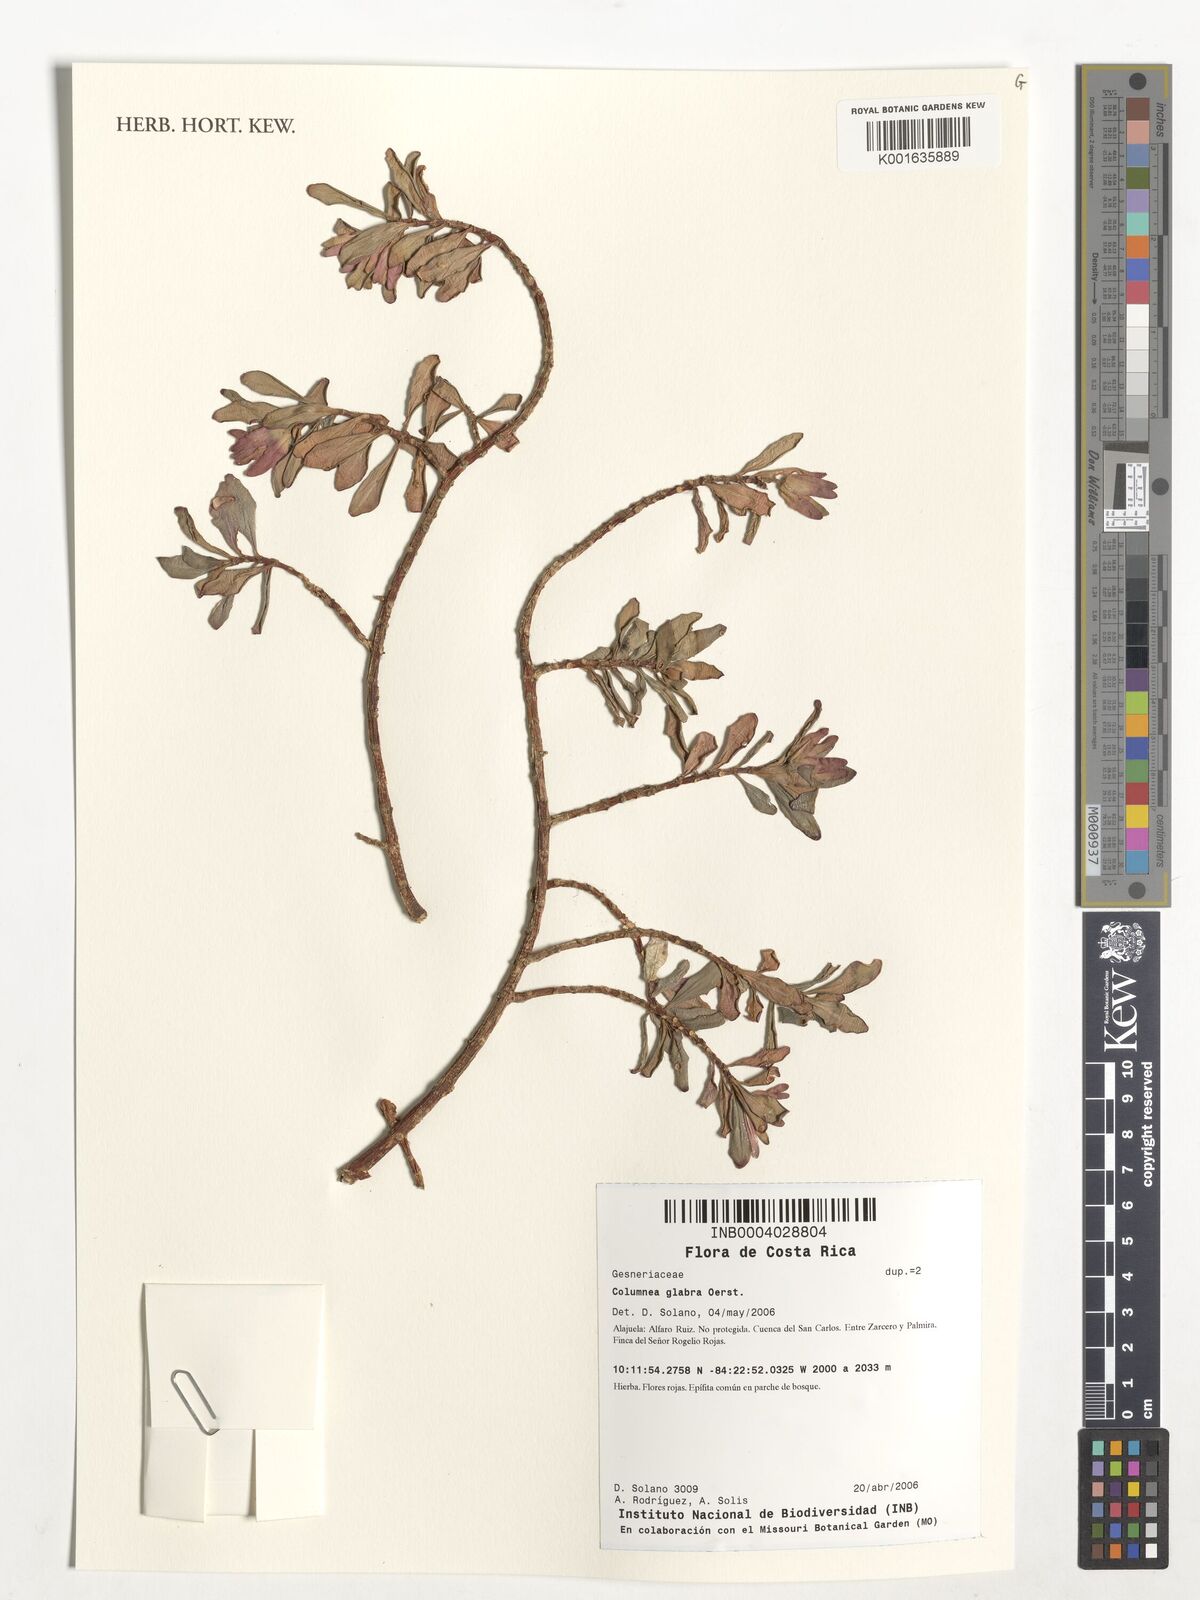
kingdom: Plantae
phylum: Tracheophyta
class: Magnoliopsida
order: Lamiales
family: Gesneriaceae
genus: Columnea
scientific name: Columnea glabra
